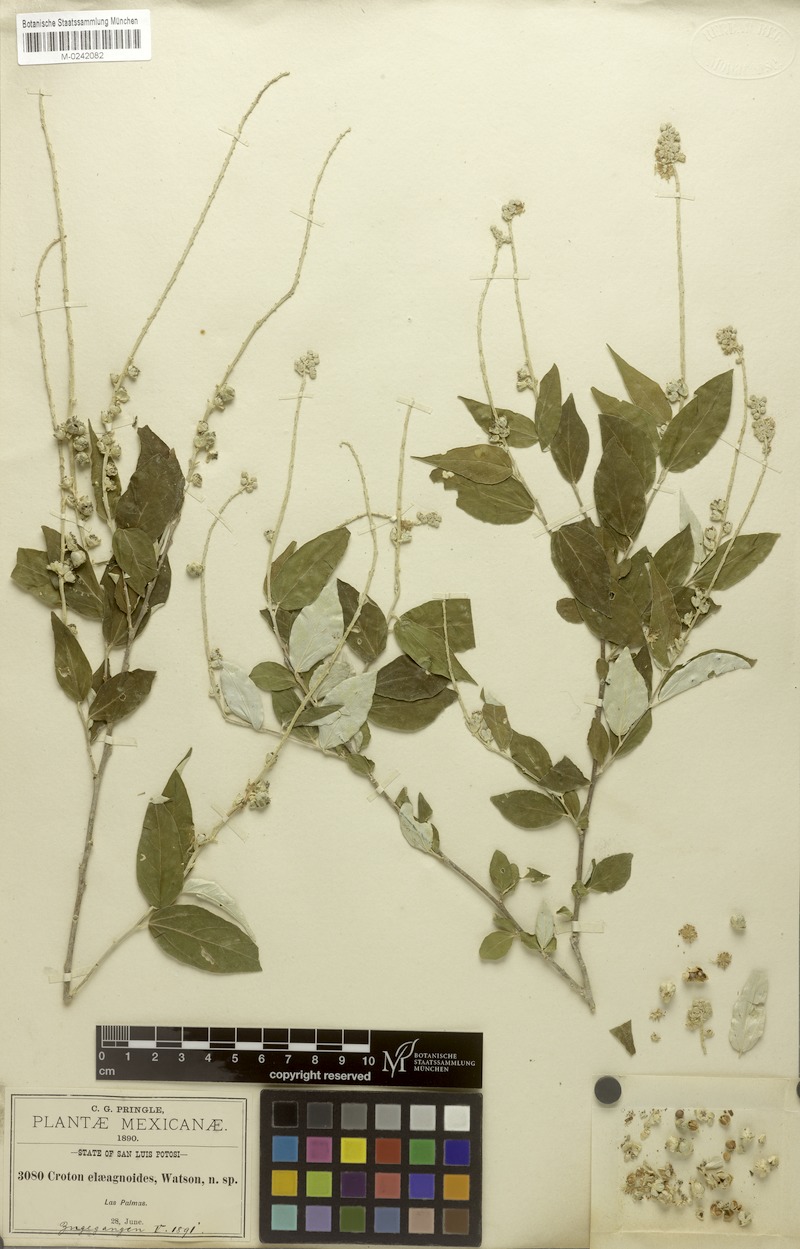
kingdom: Plantae
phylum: Tracheophyta
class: Magnoliopsida
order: Malpighiales
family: Euphorbiaceae
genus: Croton
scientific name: Croton watsonii
